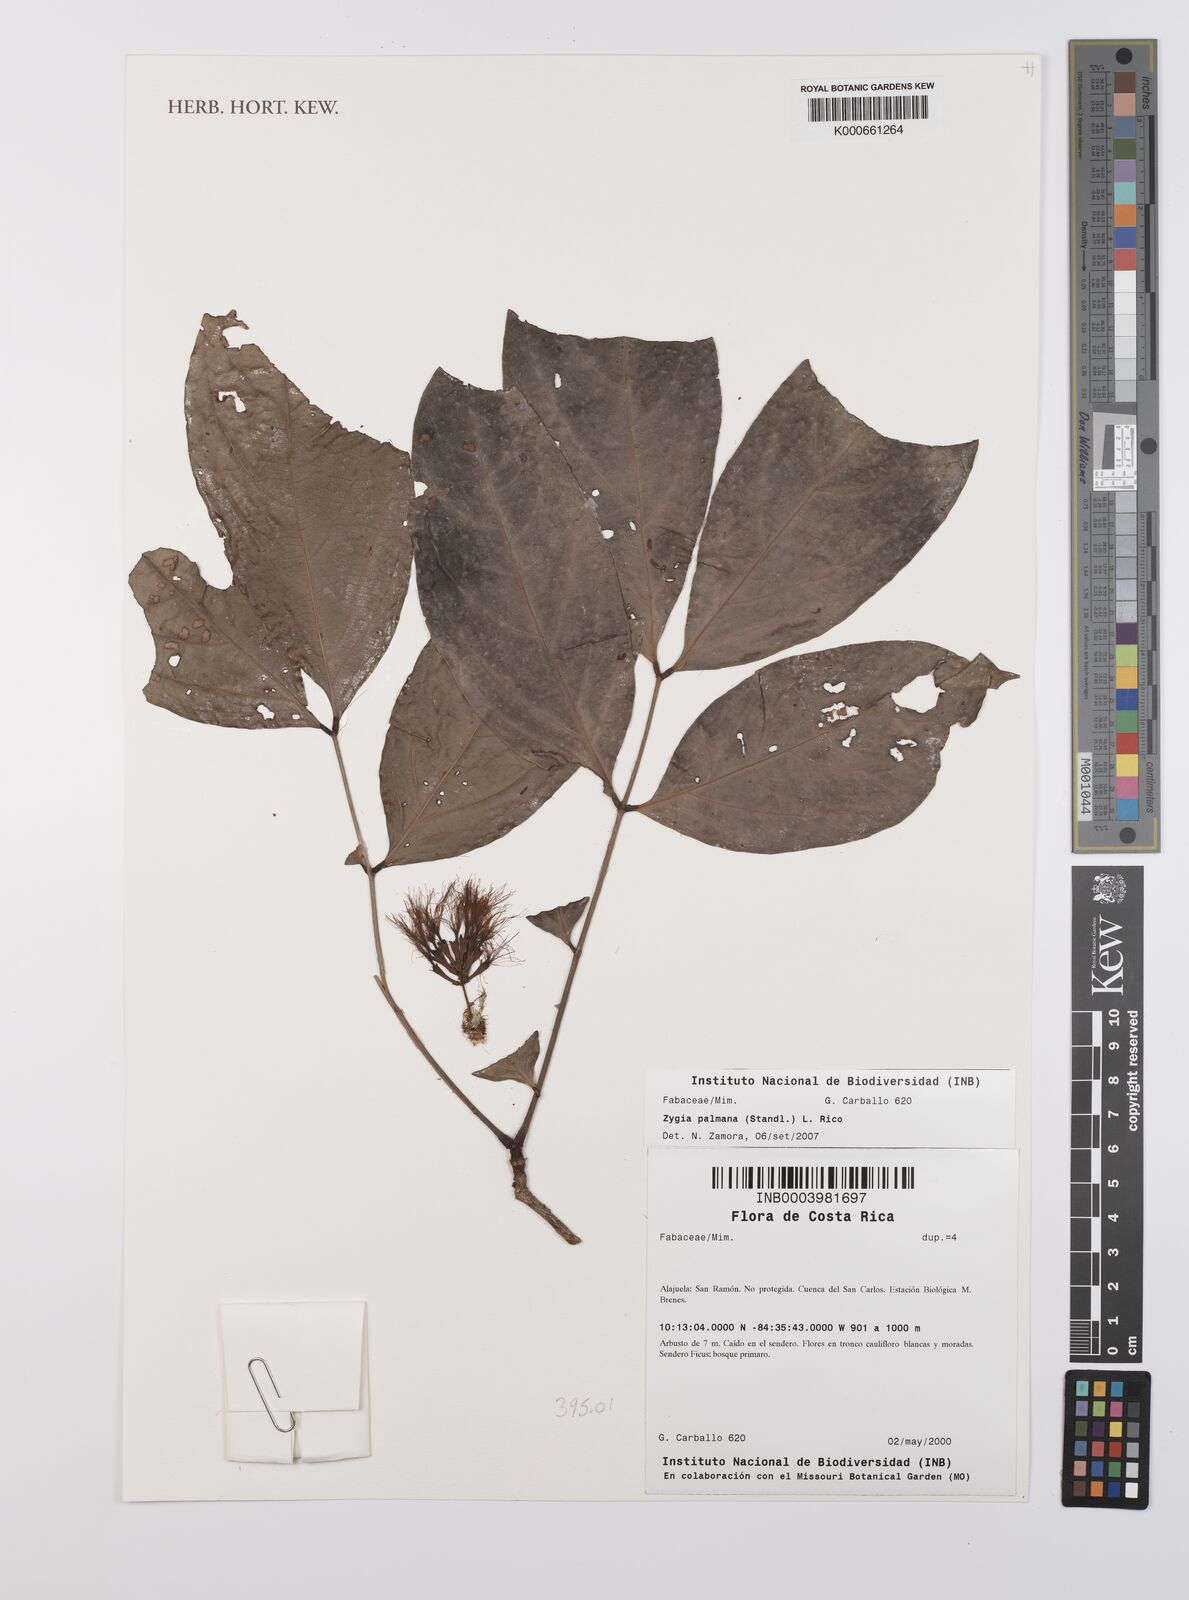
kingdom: Plantae
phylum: Tracheophyta
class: Magnoliopsida
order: Fabales
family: Fabaceae
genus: Zygia
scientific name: Zygia palmana
